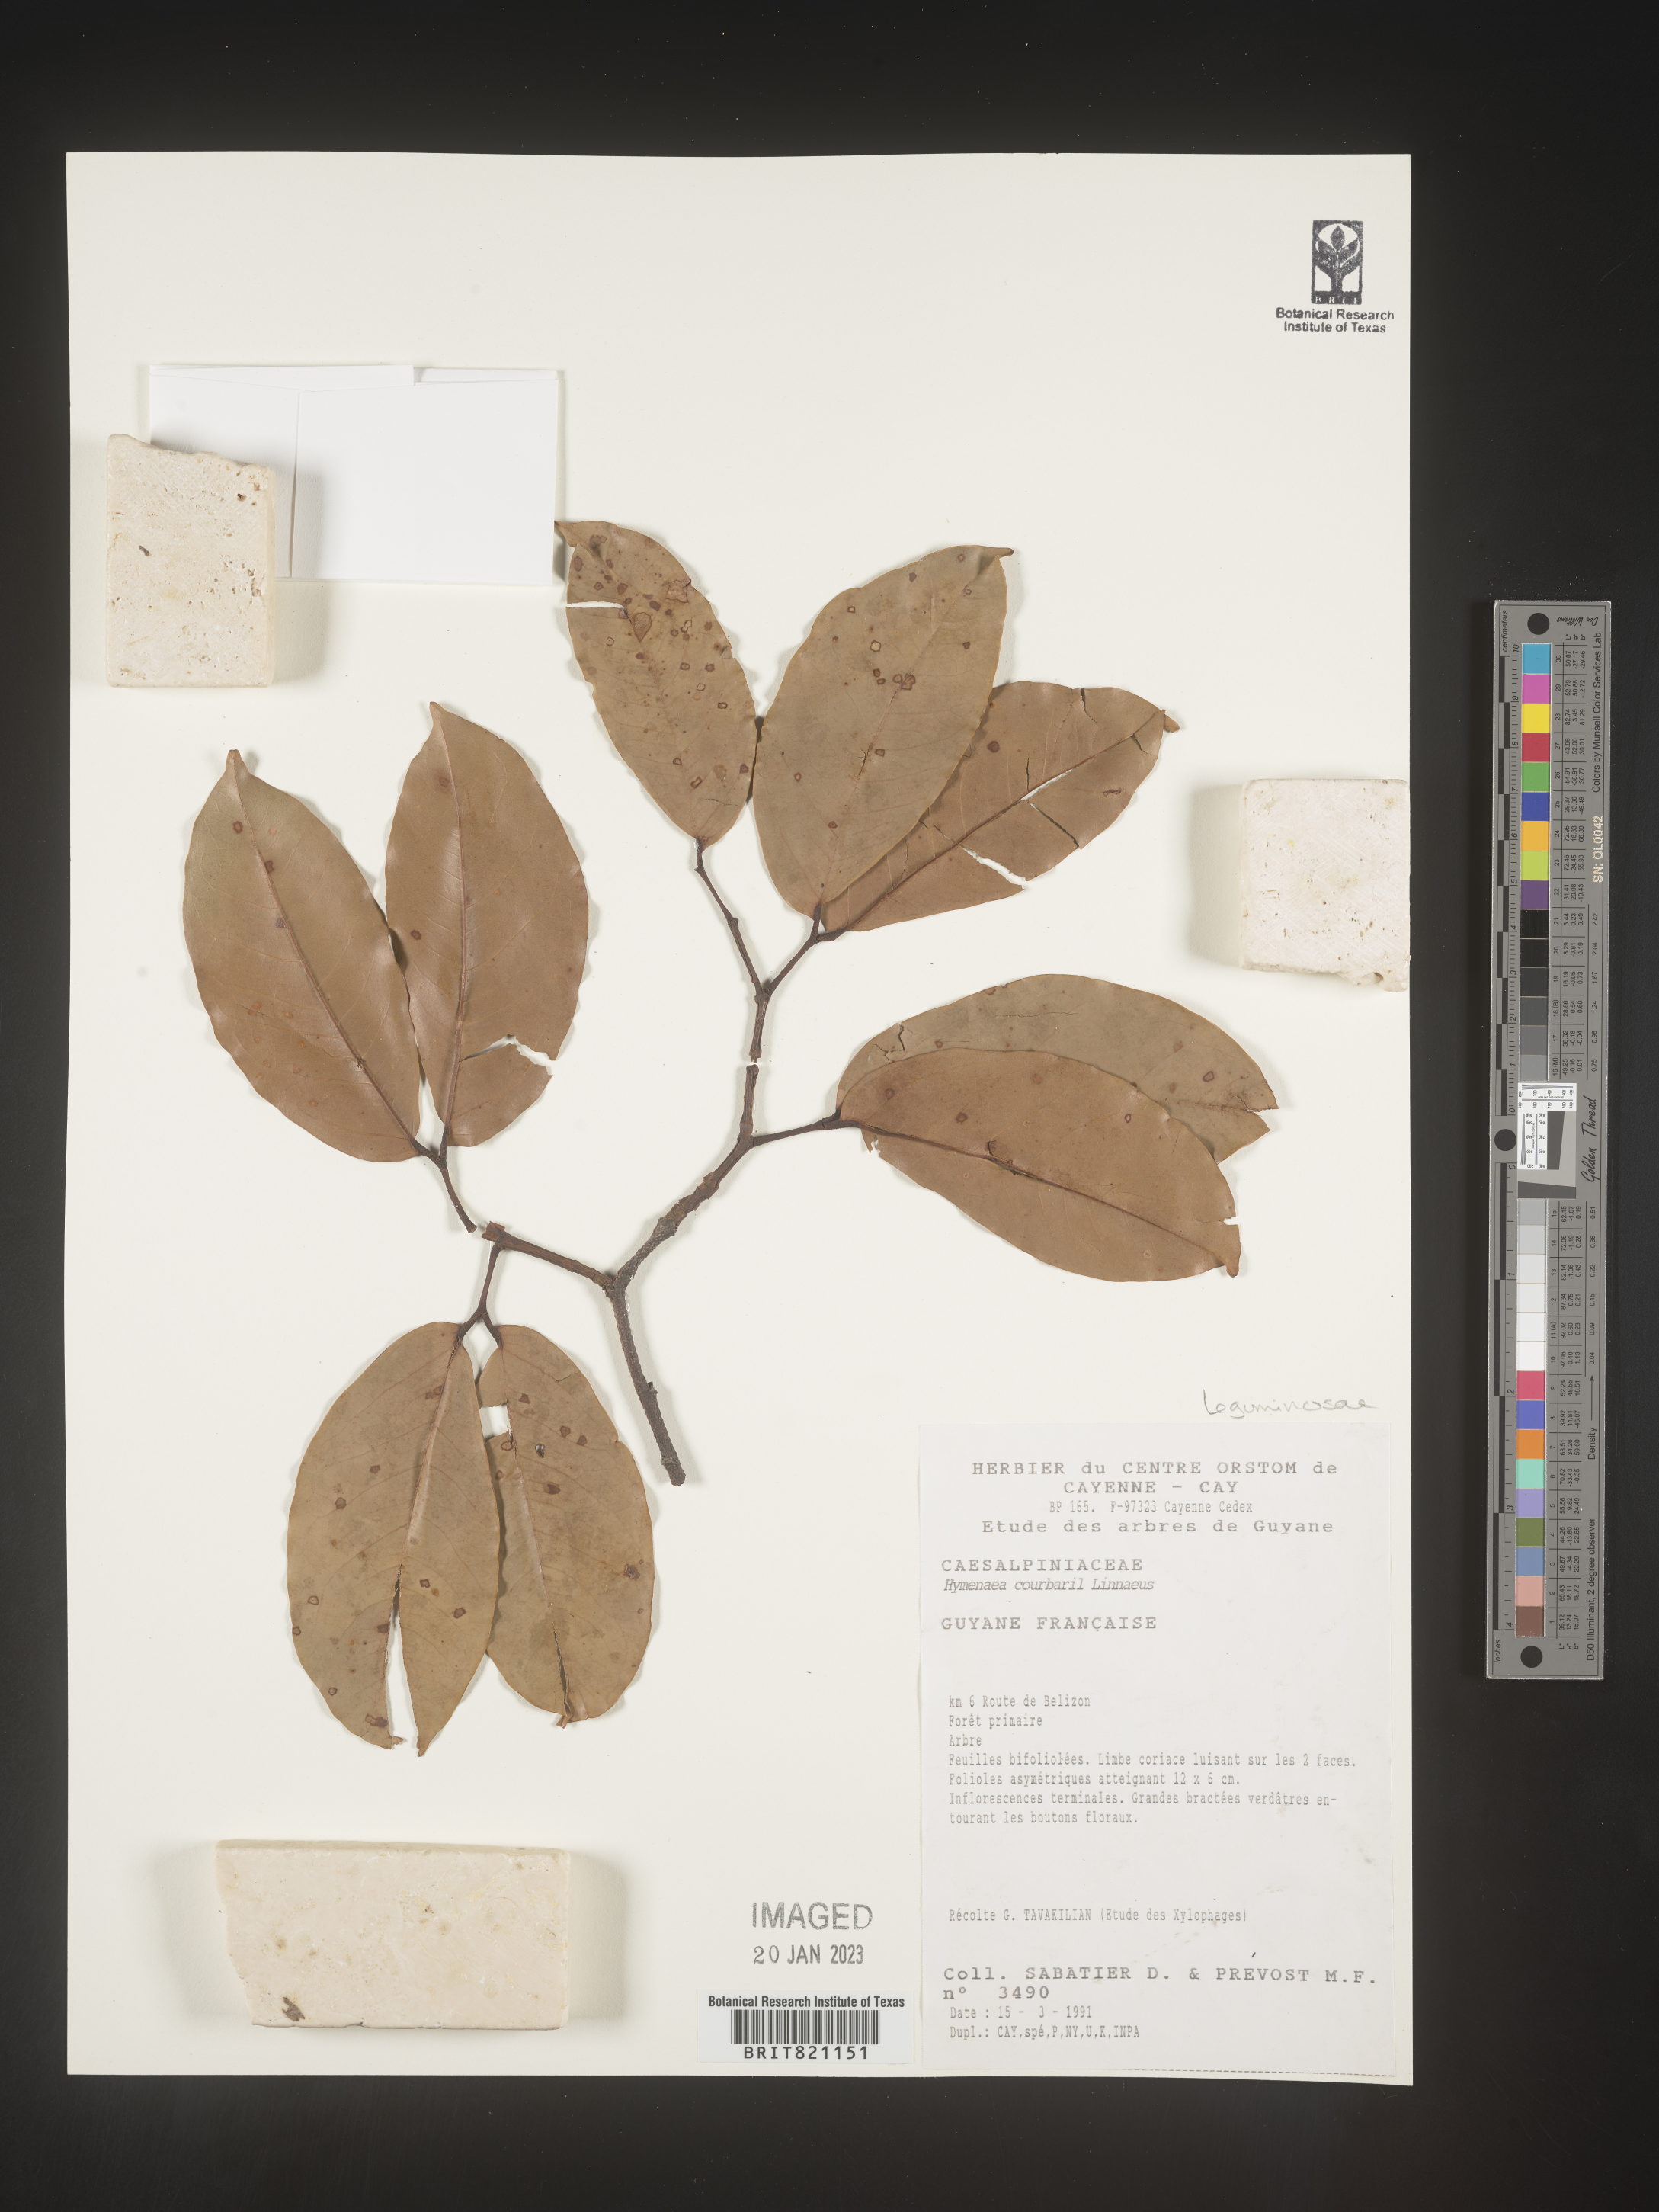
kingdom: Plantae
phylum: Tracheophyta
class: Magnoliopsida
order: Fabales
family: Fabaceae
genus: Hymenaea
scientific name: Hymenaea
